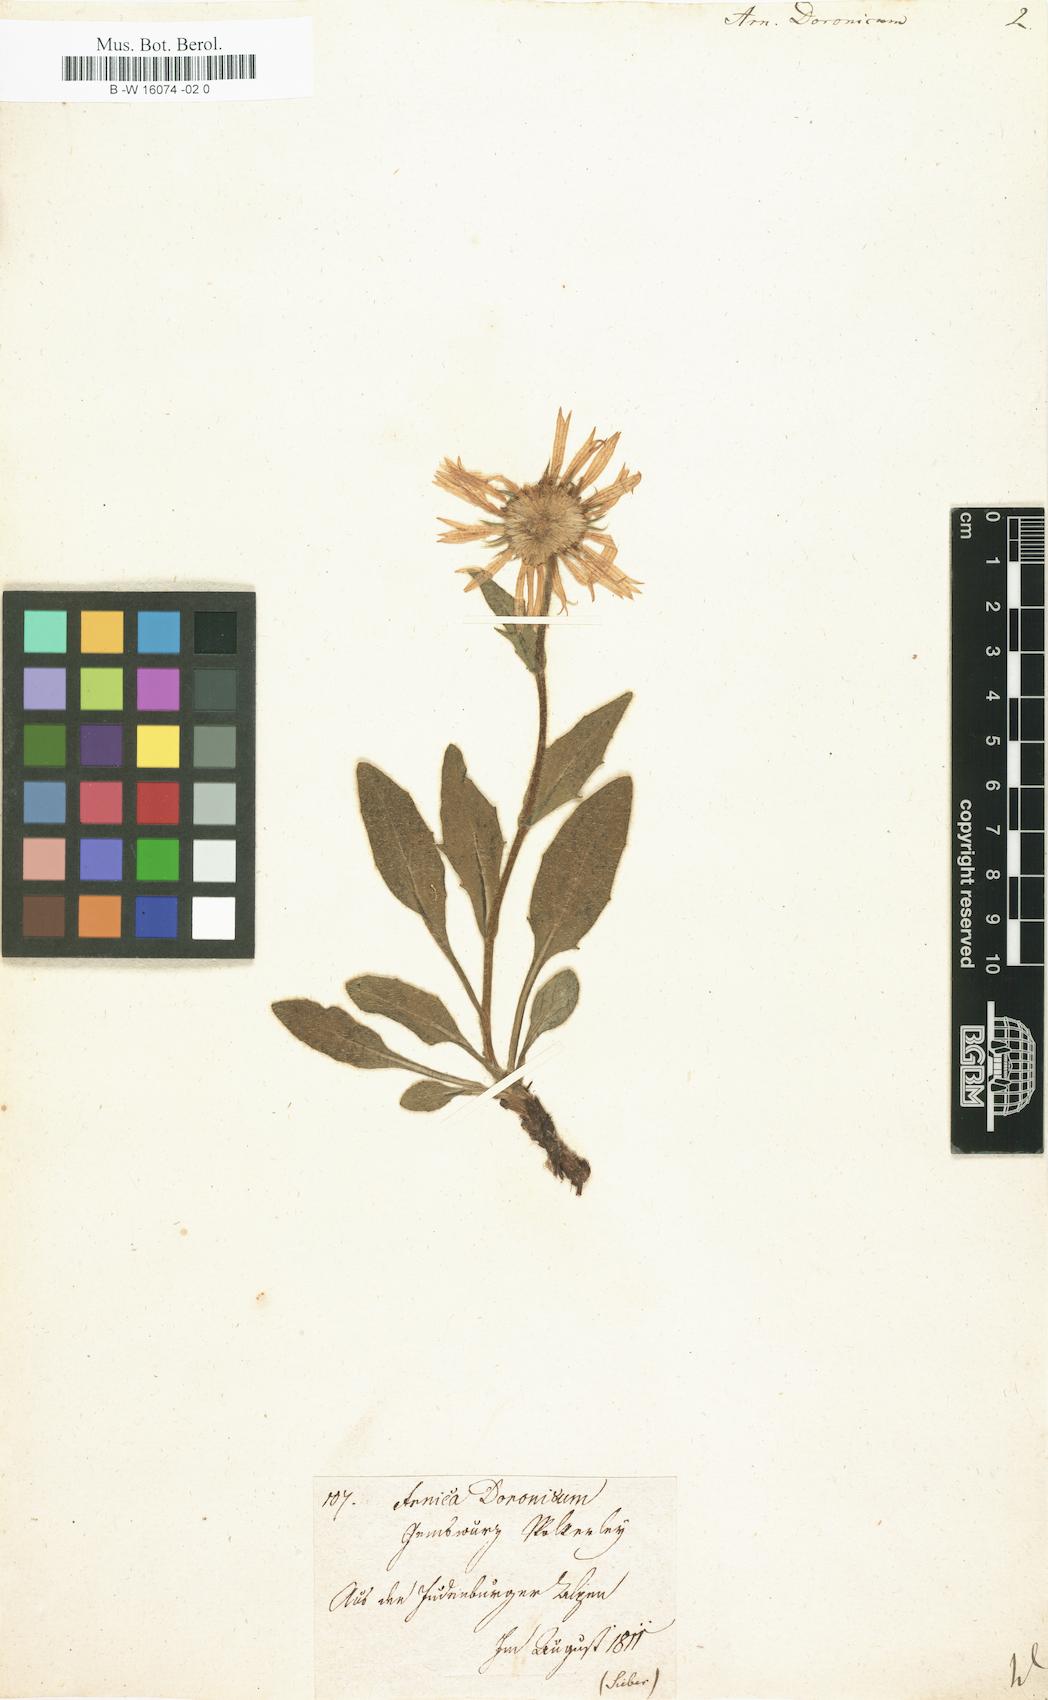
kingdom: Plantae
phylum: Tracheophyta
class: Magnoliopsida
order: Asterales
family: Asteraceae
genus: Doronicum
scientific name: Doronicum clusii
